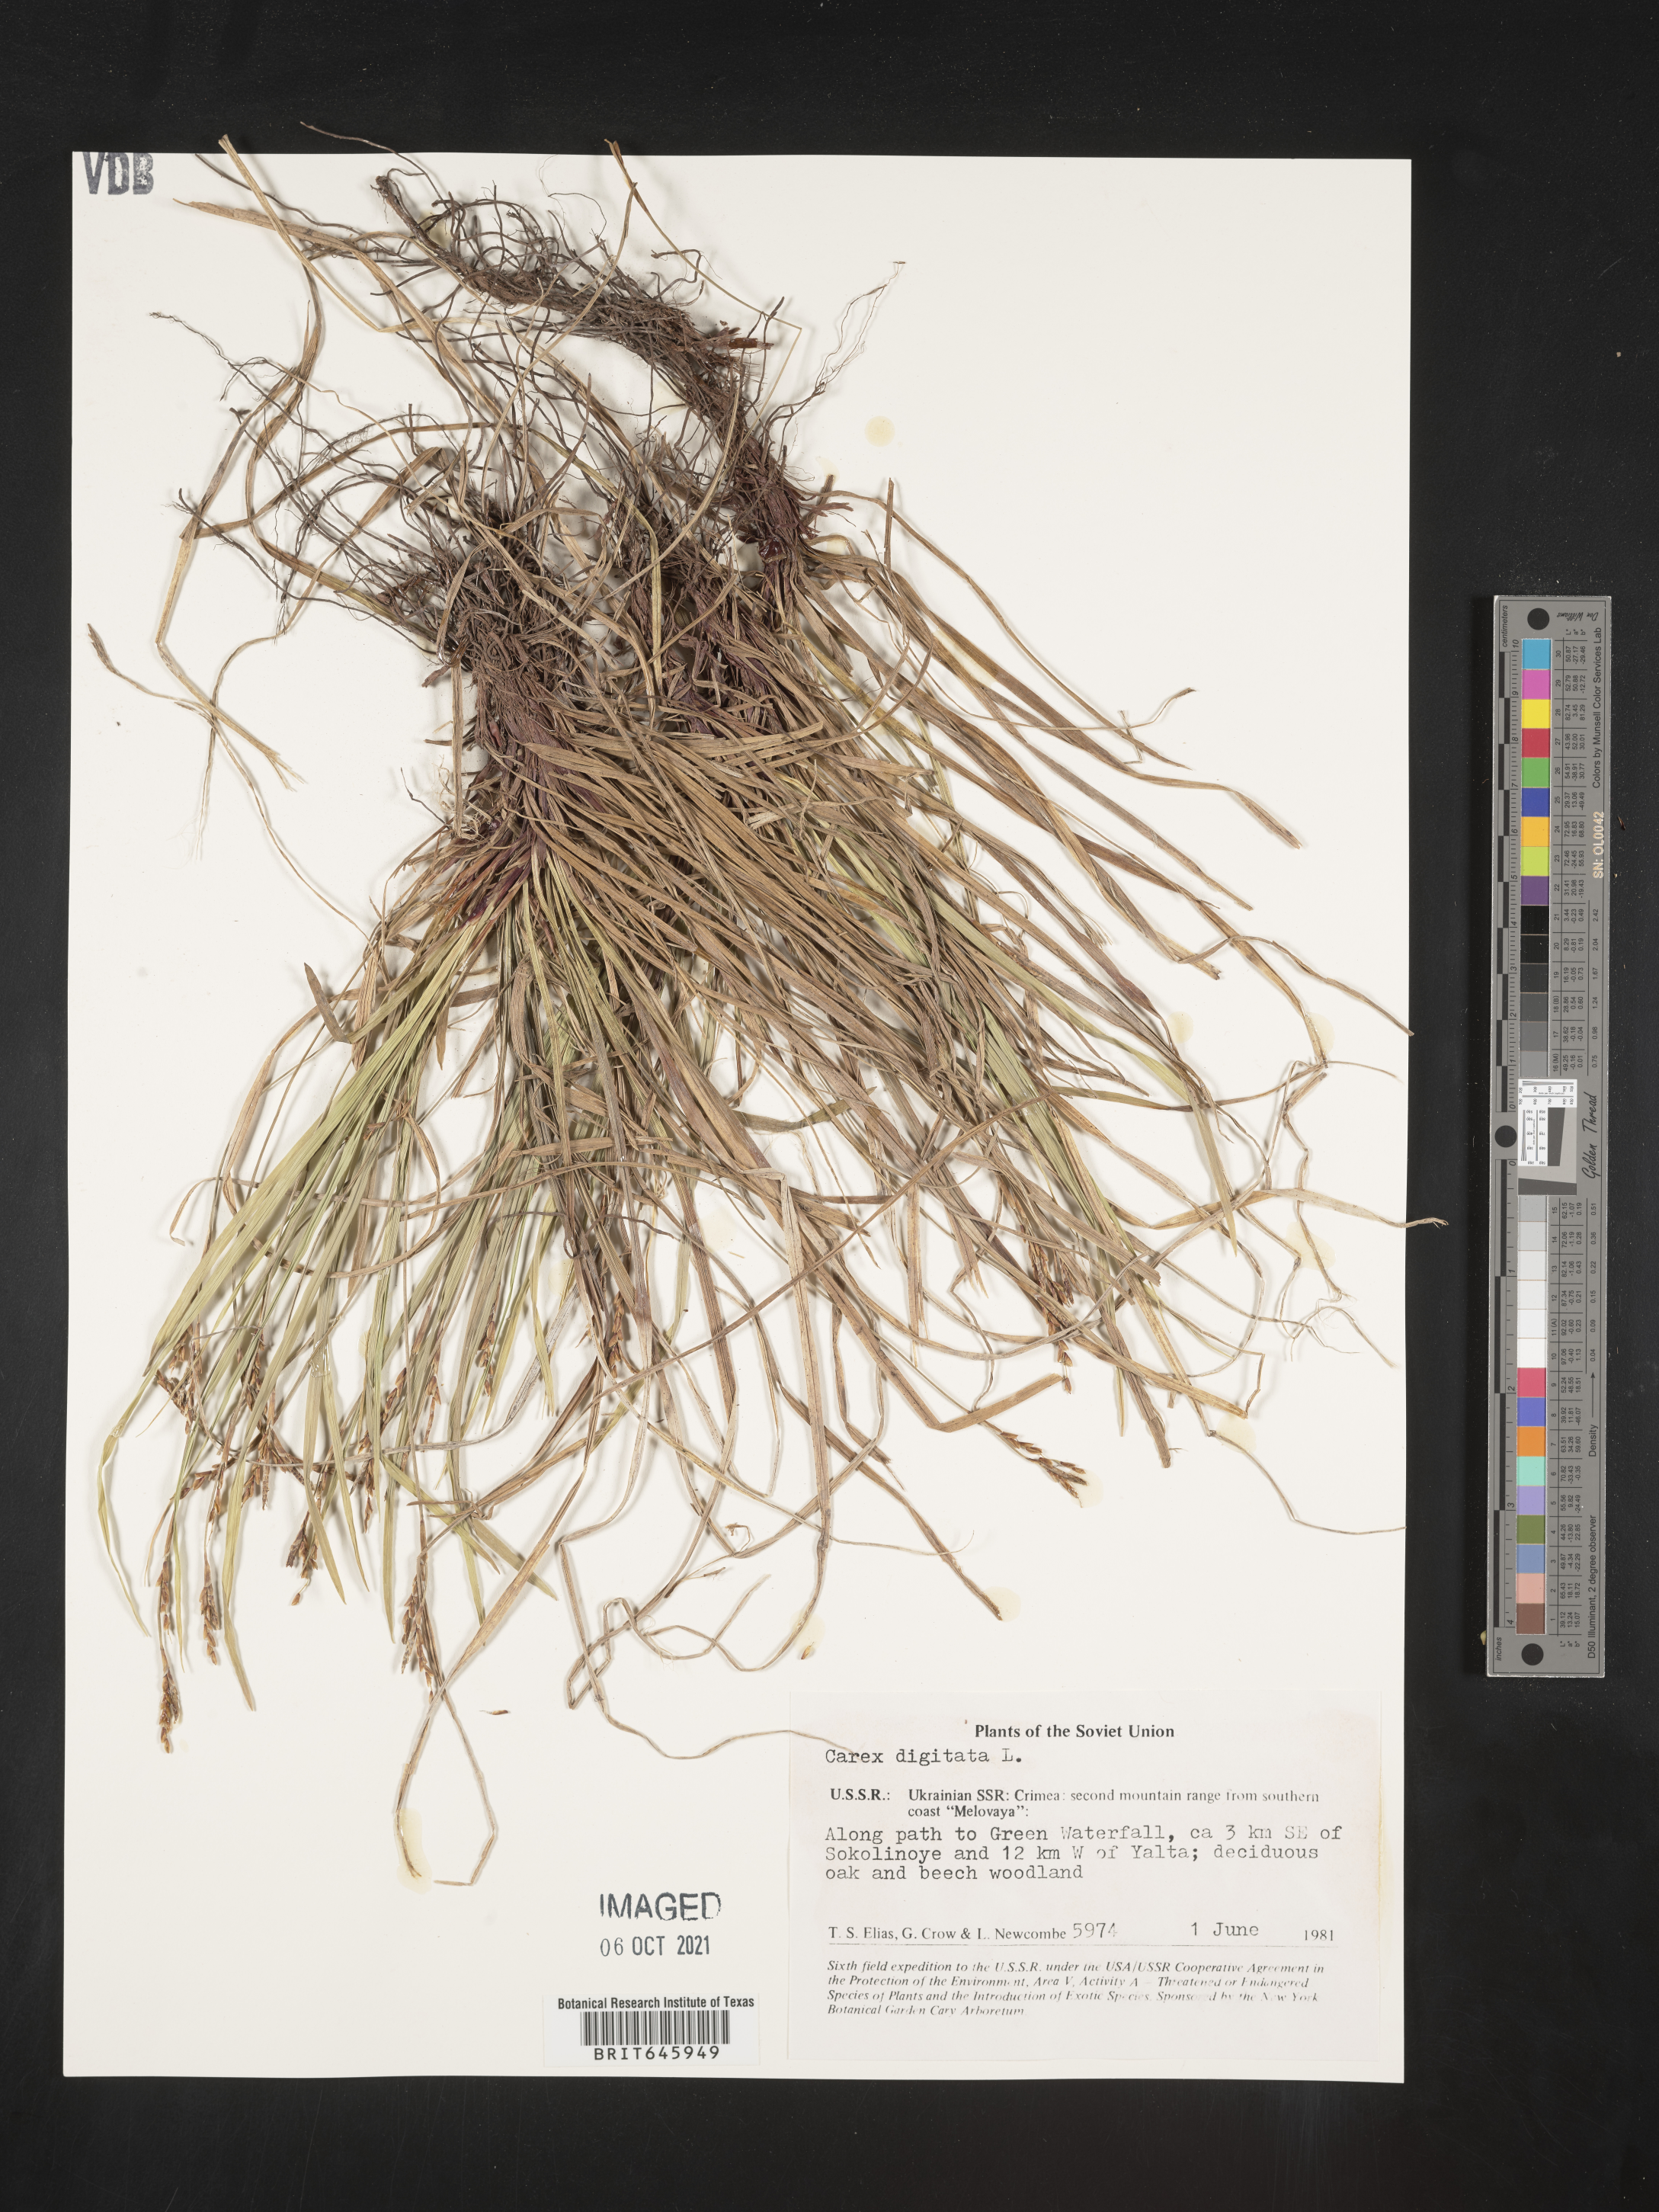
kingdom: Plantae
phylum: Tracheophyta
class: Liliopsida
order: Poales
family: Cyperaceae
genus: Carex
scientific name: Carex digitata
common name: Fingered sedge
